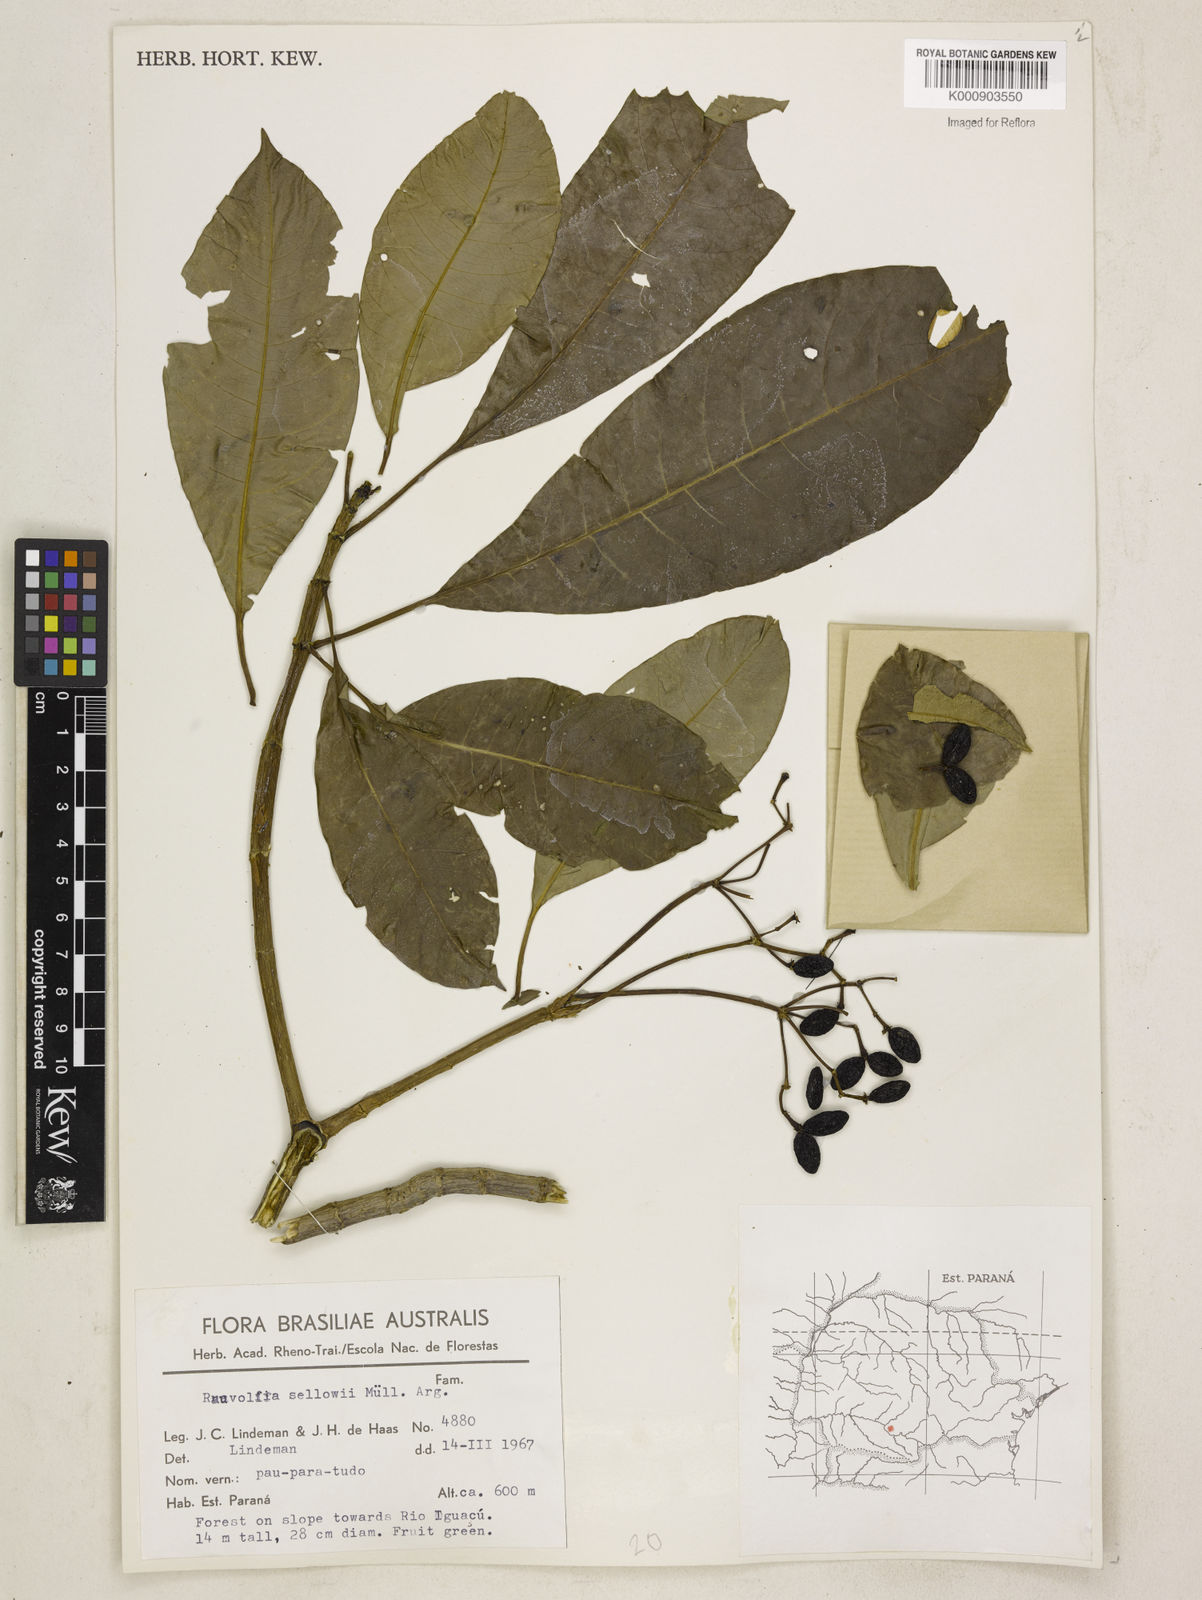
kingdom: Plantae
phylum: Tracheophyta
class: Magnoliopsida
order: Gentianales
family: Apocynaceae
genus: Rauvolfia
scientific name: Rauvolfia
